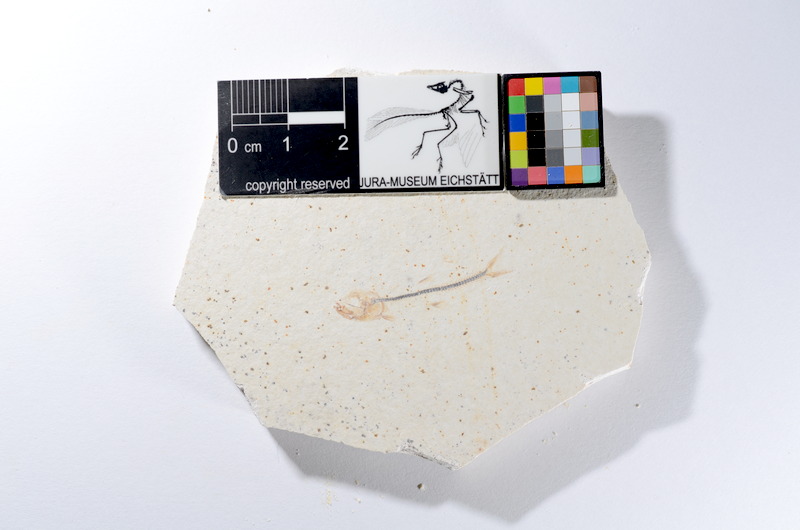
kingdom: Animalia
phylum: Chordata
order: Salmoniformes
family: Orthogonikleithridae
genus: Orthogonikleithrus
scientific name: Orthogonikleithrus hoelli
